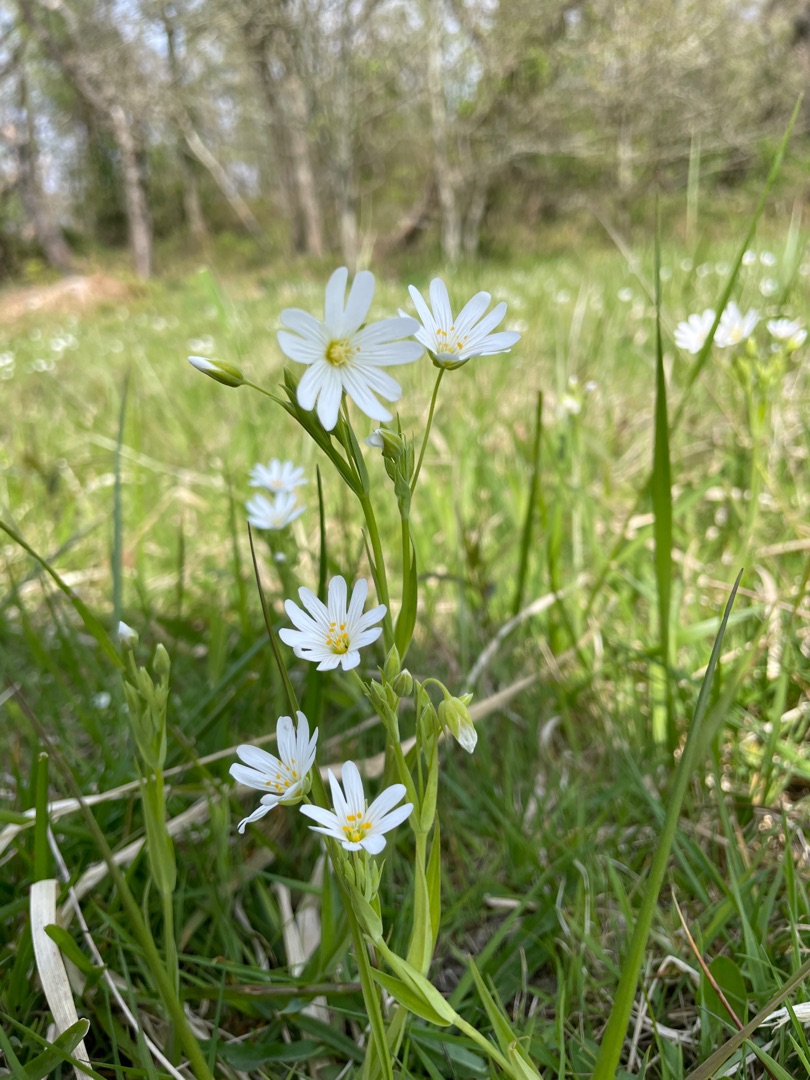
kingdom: Plantae
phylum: Tracheophyta
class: Magnoliopsida
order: Caryophyllales
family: Caryophyllaceae
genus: Rabelera
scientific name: Rabelera holostea
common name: Stor fladstjerne
